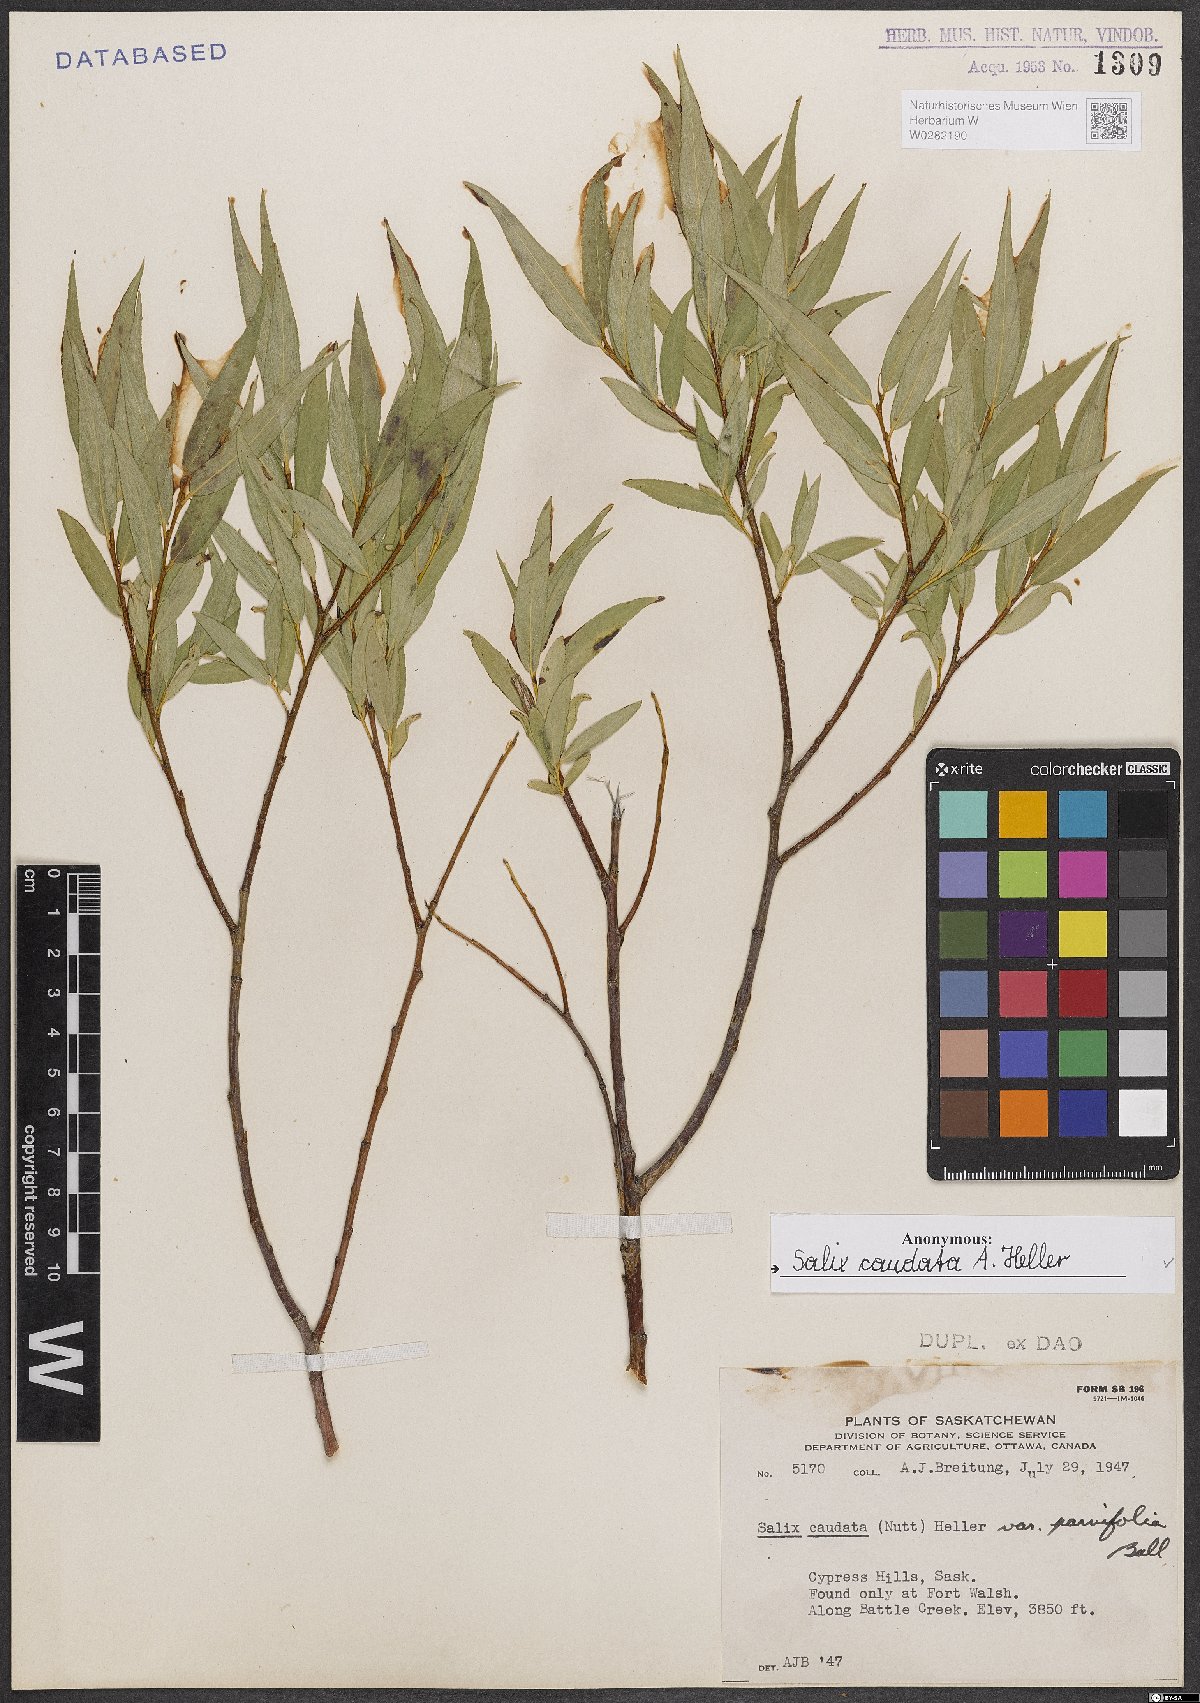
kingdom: Plantae
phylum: Tracheophyta
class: Magnoliopsida
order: Malpighiales
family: Salicaceae
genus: Salix
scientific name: Salix lucida
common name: Shining willow
